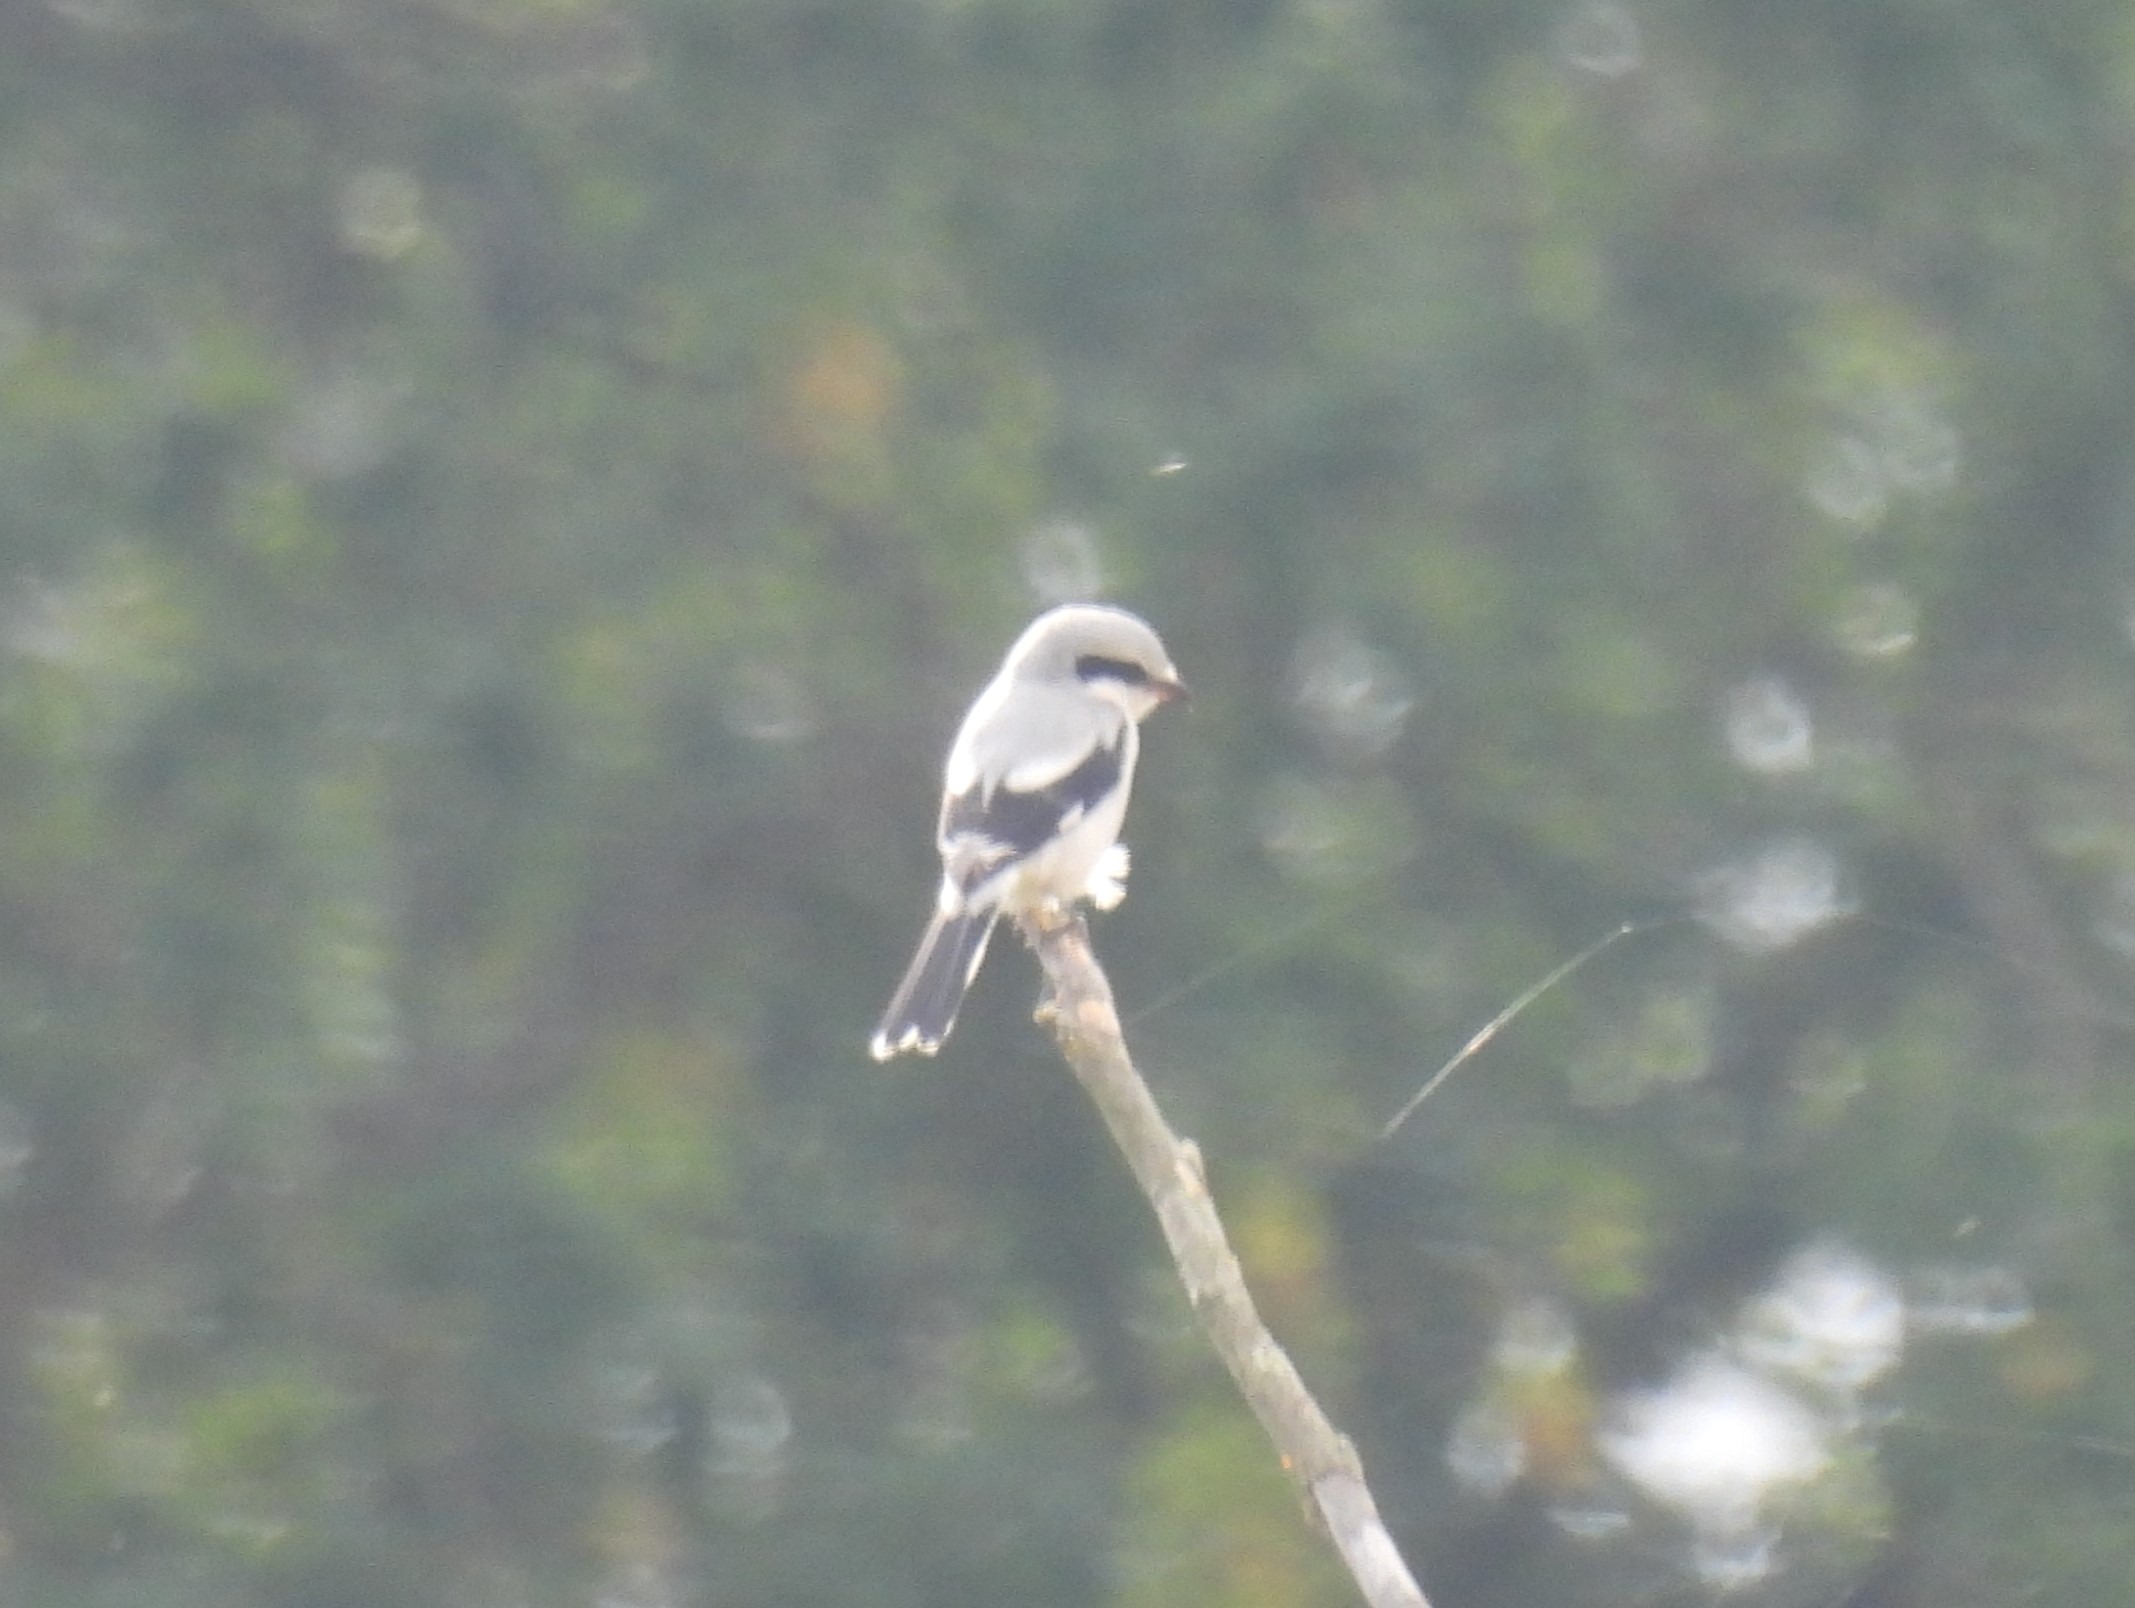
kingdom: Animalia
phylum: Chordata
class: Aves
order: Passeriformes
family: Laniidae
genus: Lanius
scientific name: Lanius excubitor
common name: Stor tornskade
